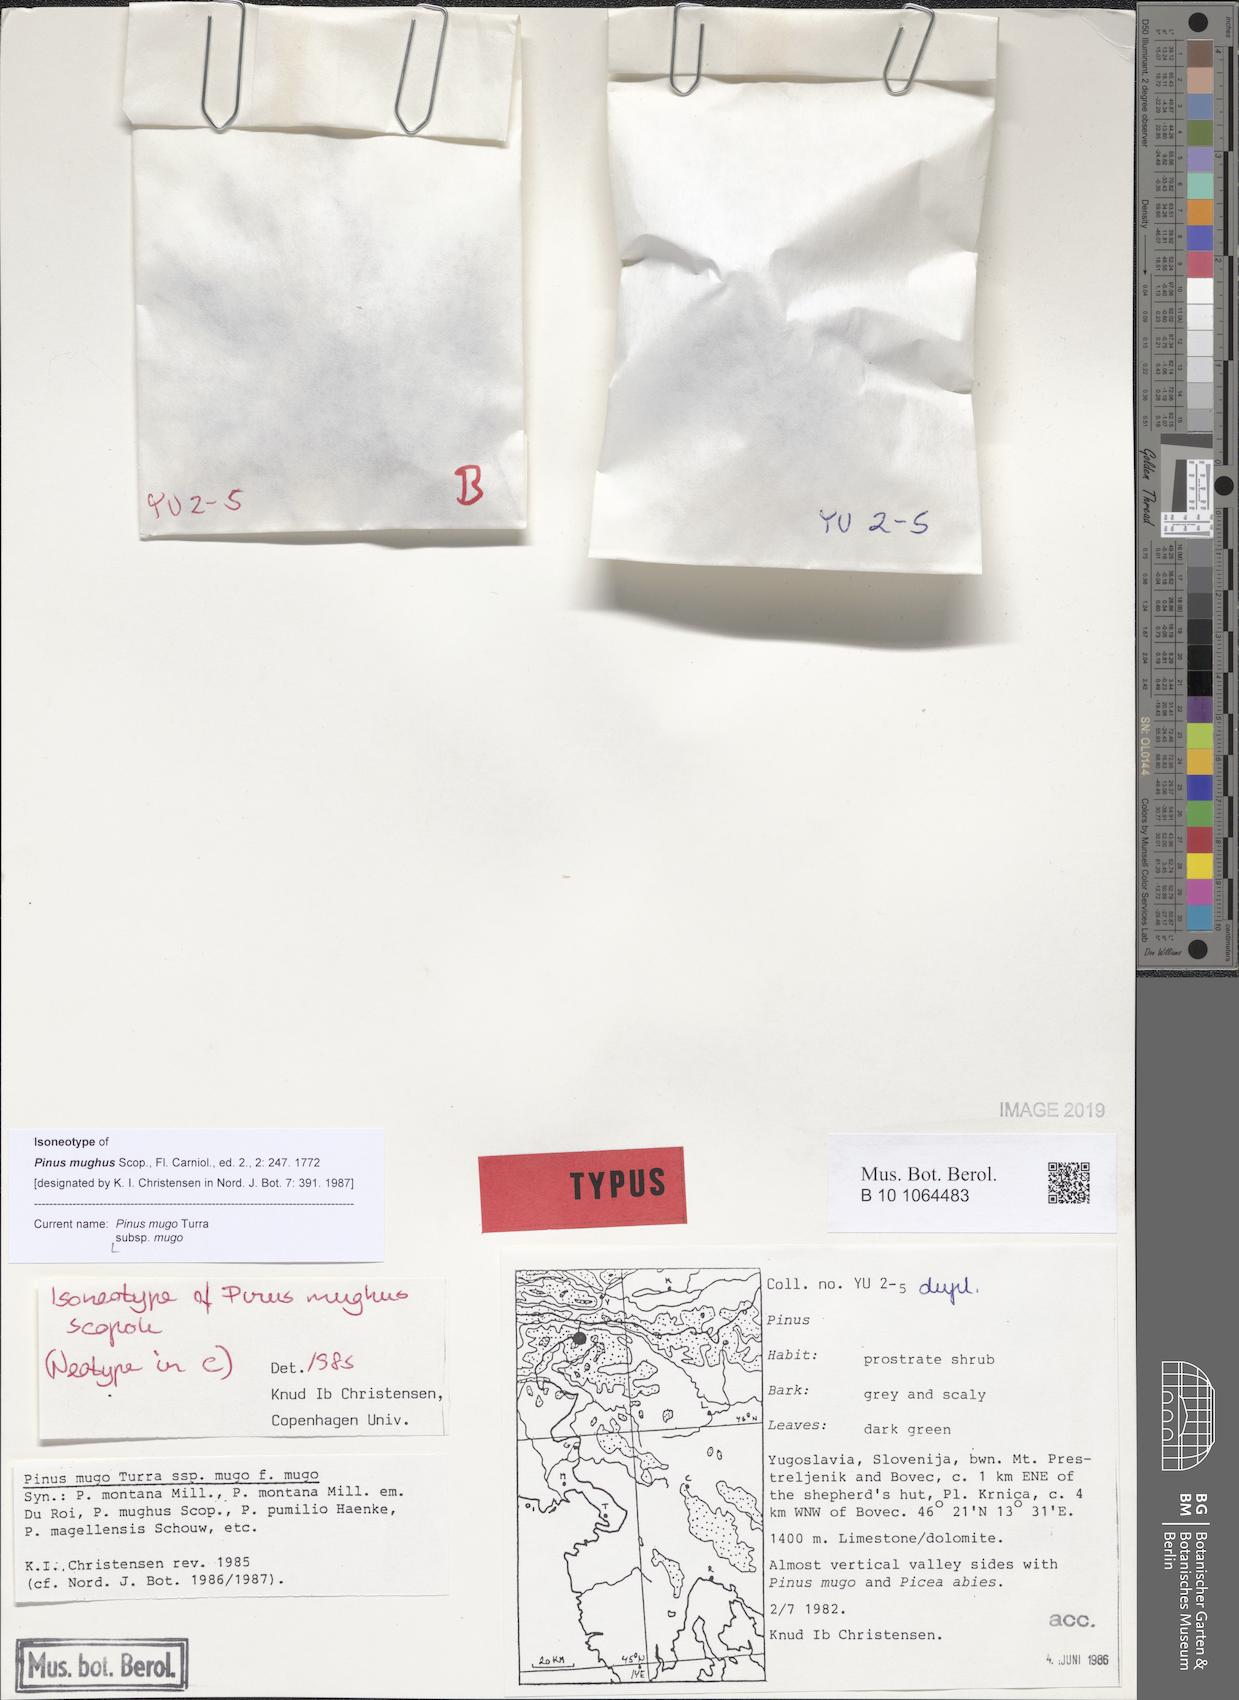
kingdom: Plantae
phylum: Tracheophyta
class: Pinopsida
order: Pinales
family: Pinaceae
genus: Pinus
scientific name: Pinus mugo
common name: Mugo pine
